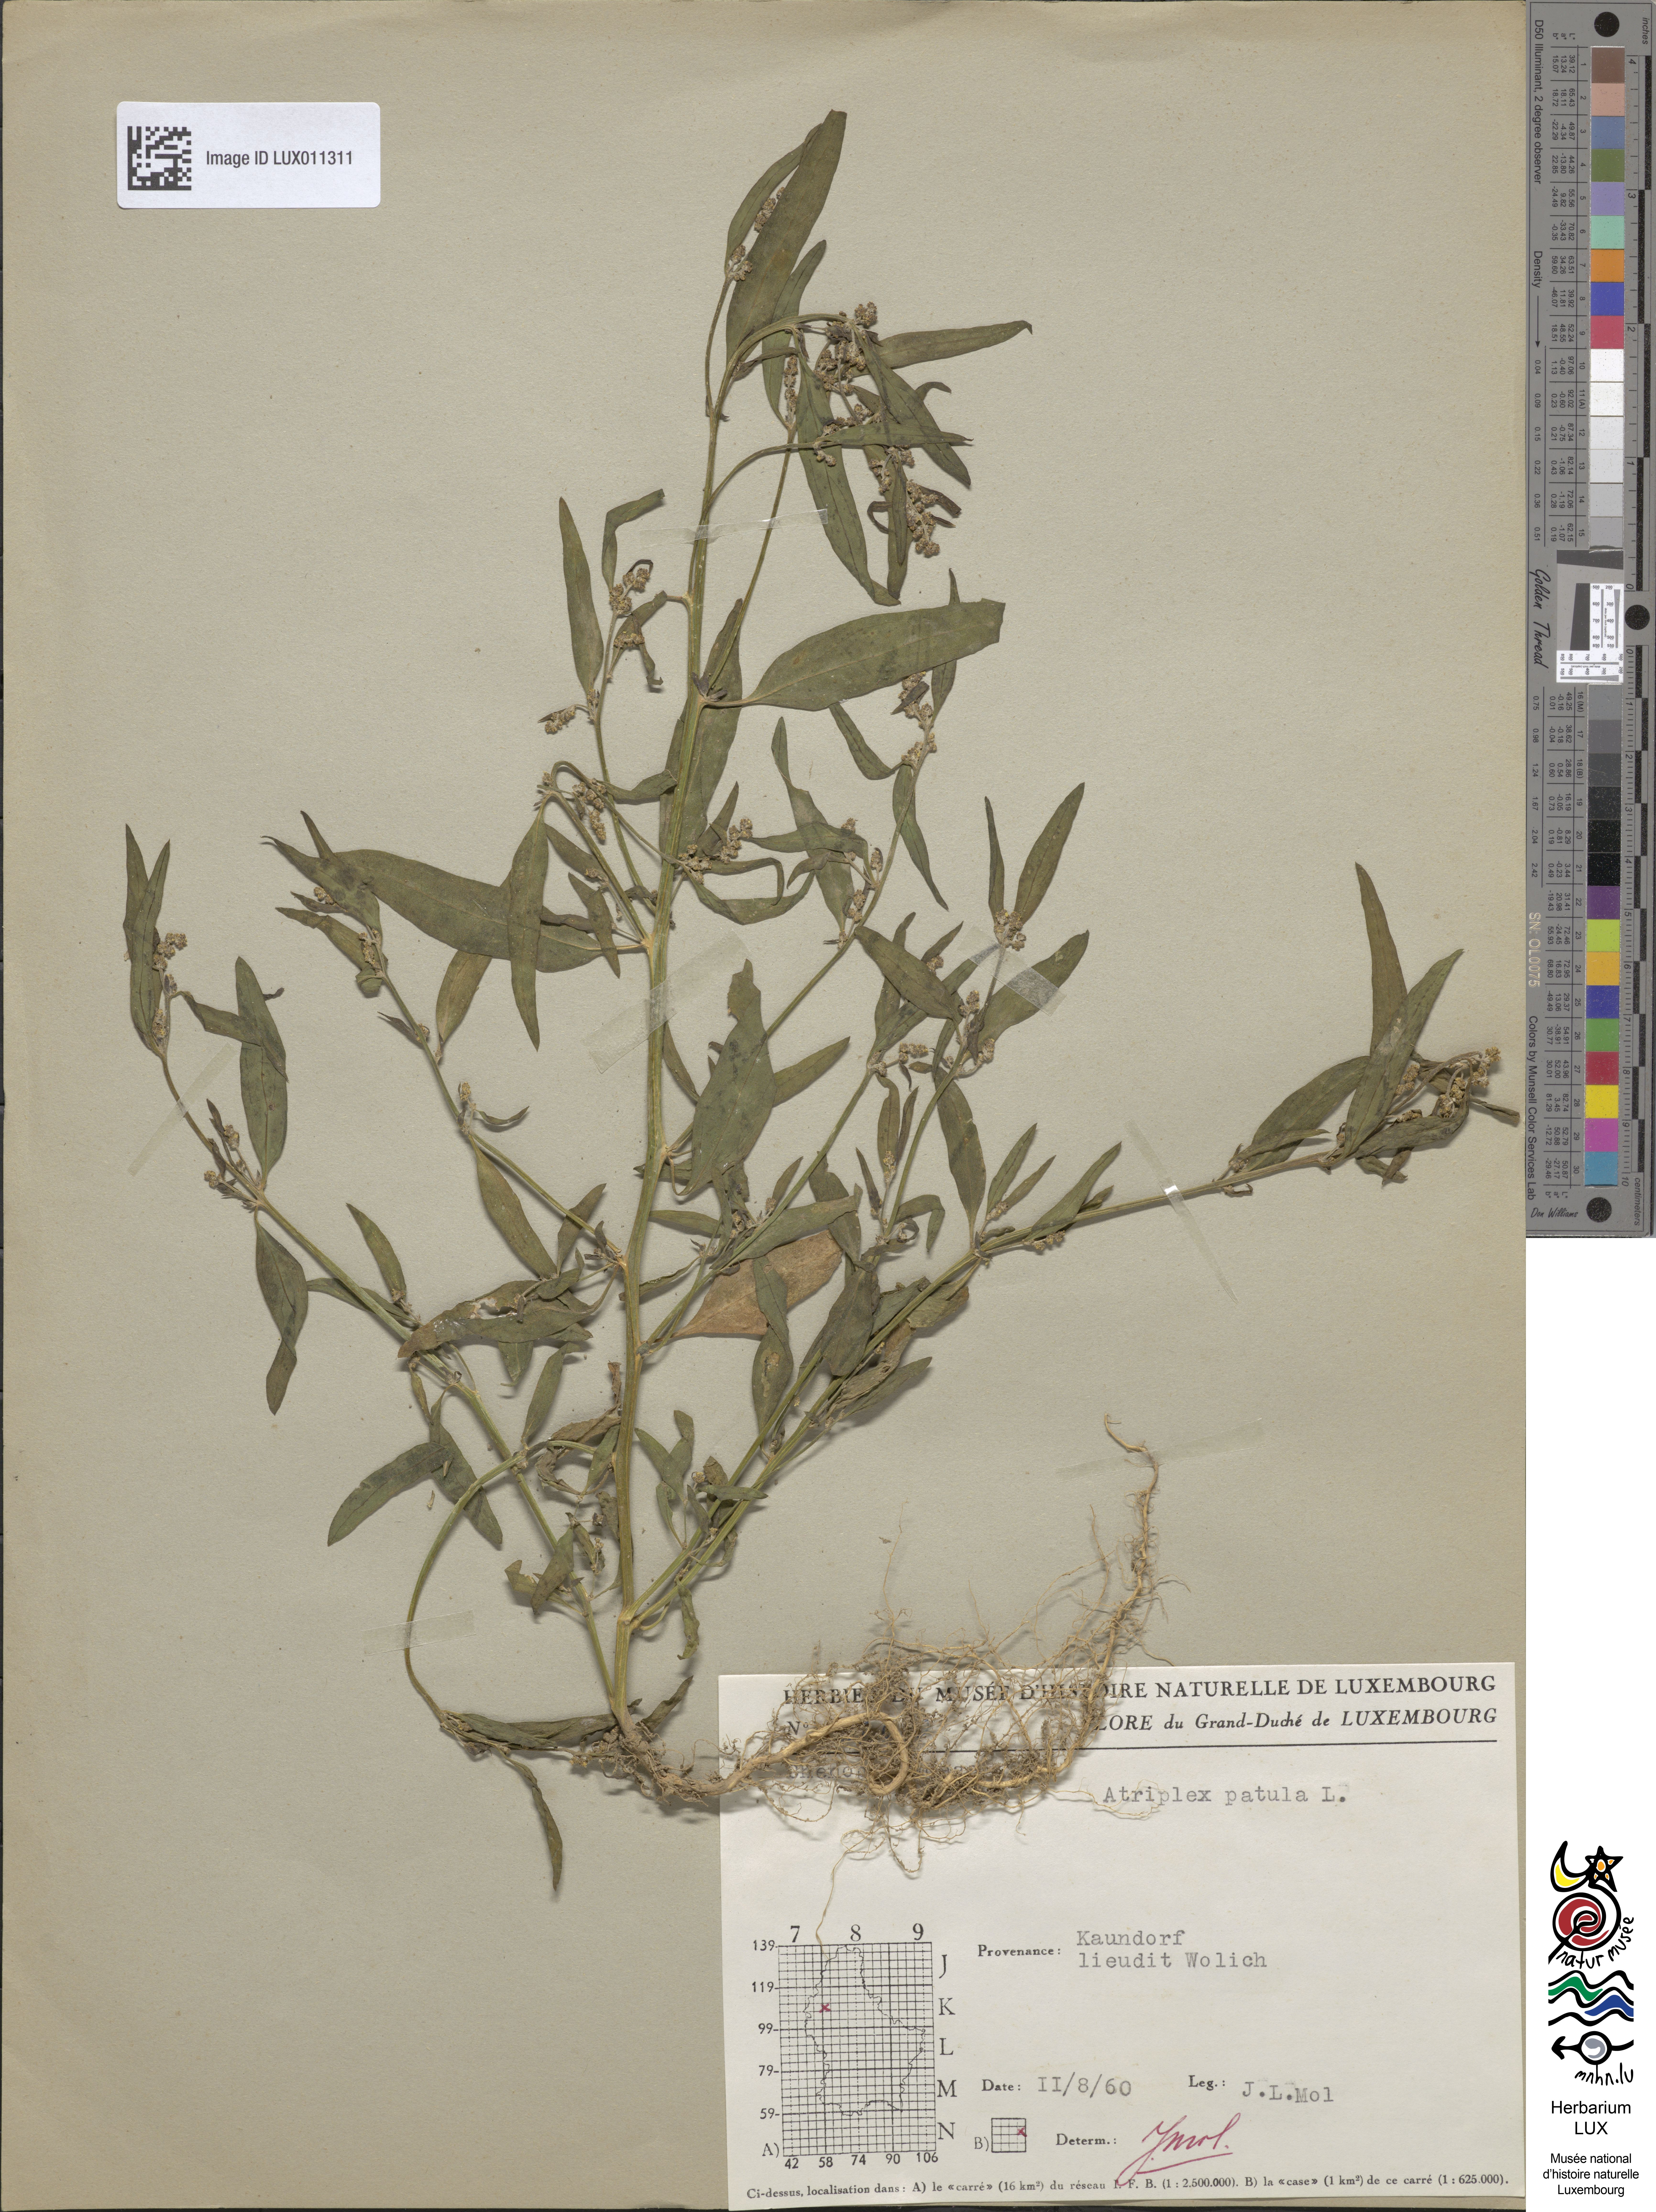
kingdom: Plantae
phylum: Tracheophyta
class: Magnoliopsida
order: Caryophyllales
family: Amaranthaceae
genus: Atriplex
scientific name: Atriplex patula
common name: Common orache
